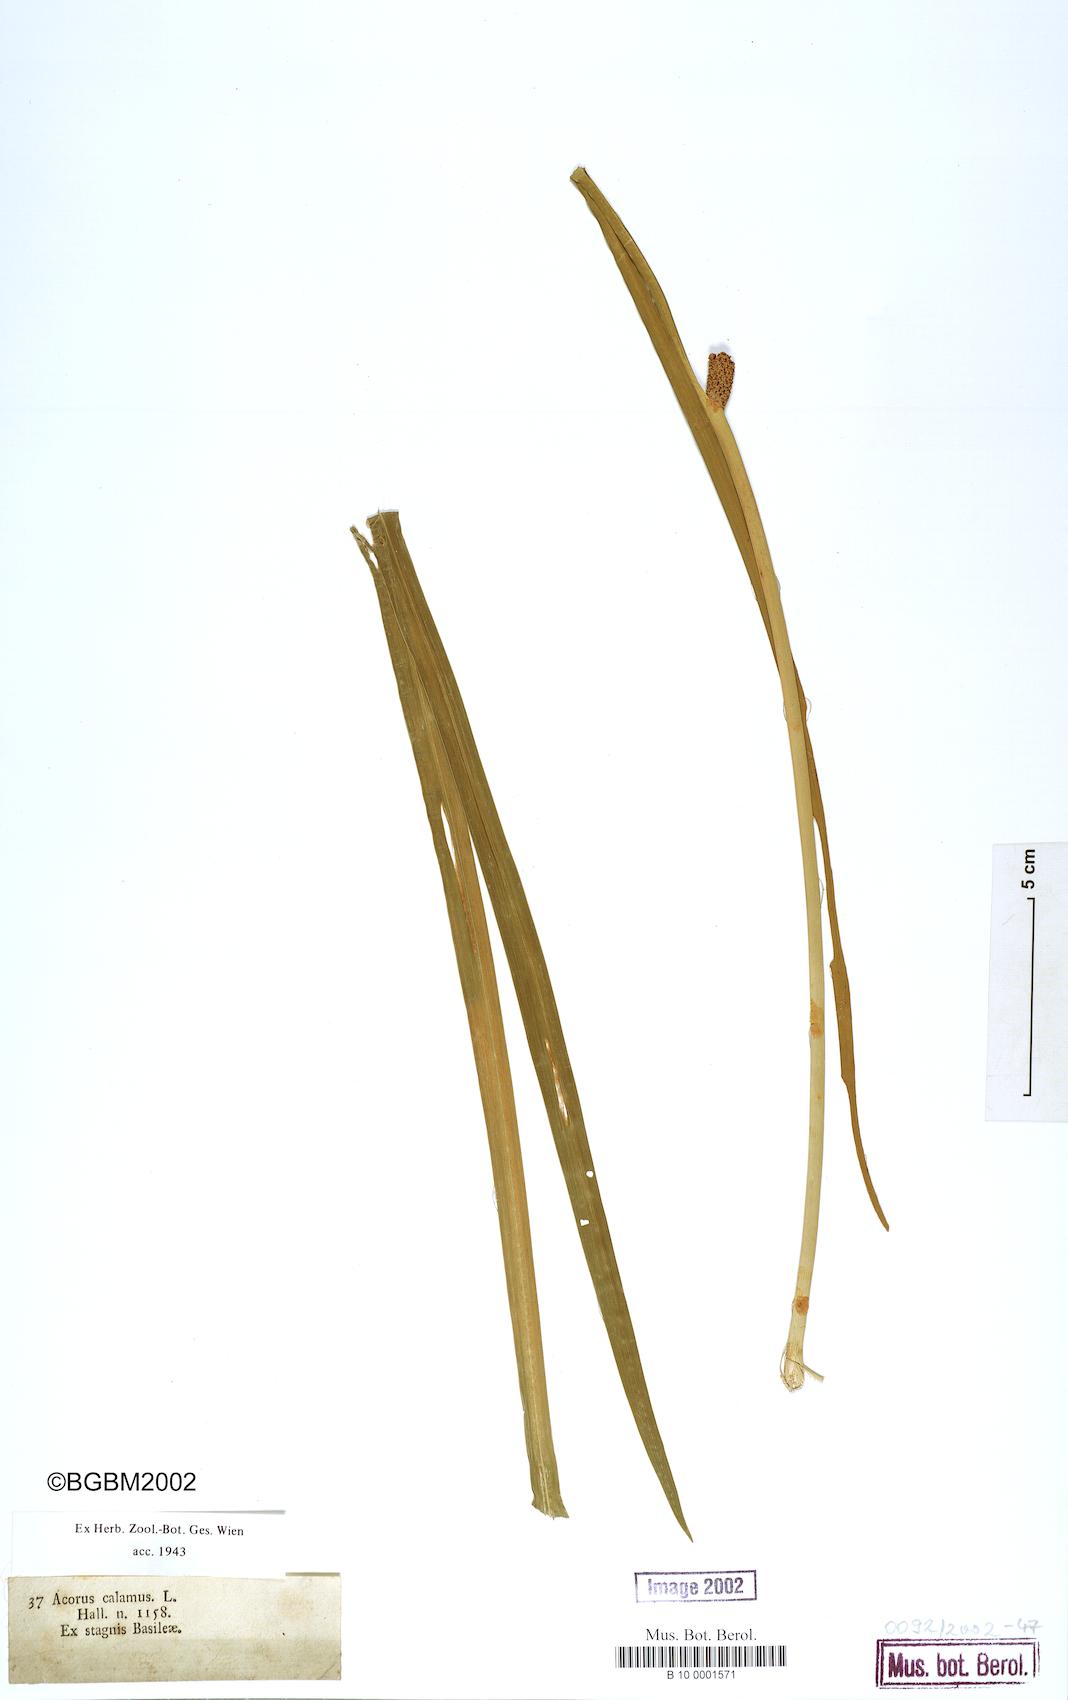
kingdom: Plantae
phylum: Tracheophyta
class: Liliopsida
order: Acorales
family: Acoraceae
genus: Acorus
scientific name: Acorus calamus
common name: Sweet-flag
